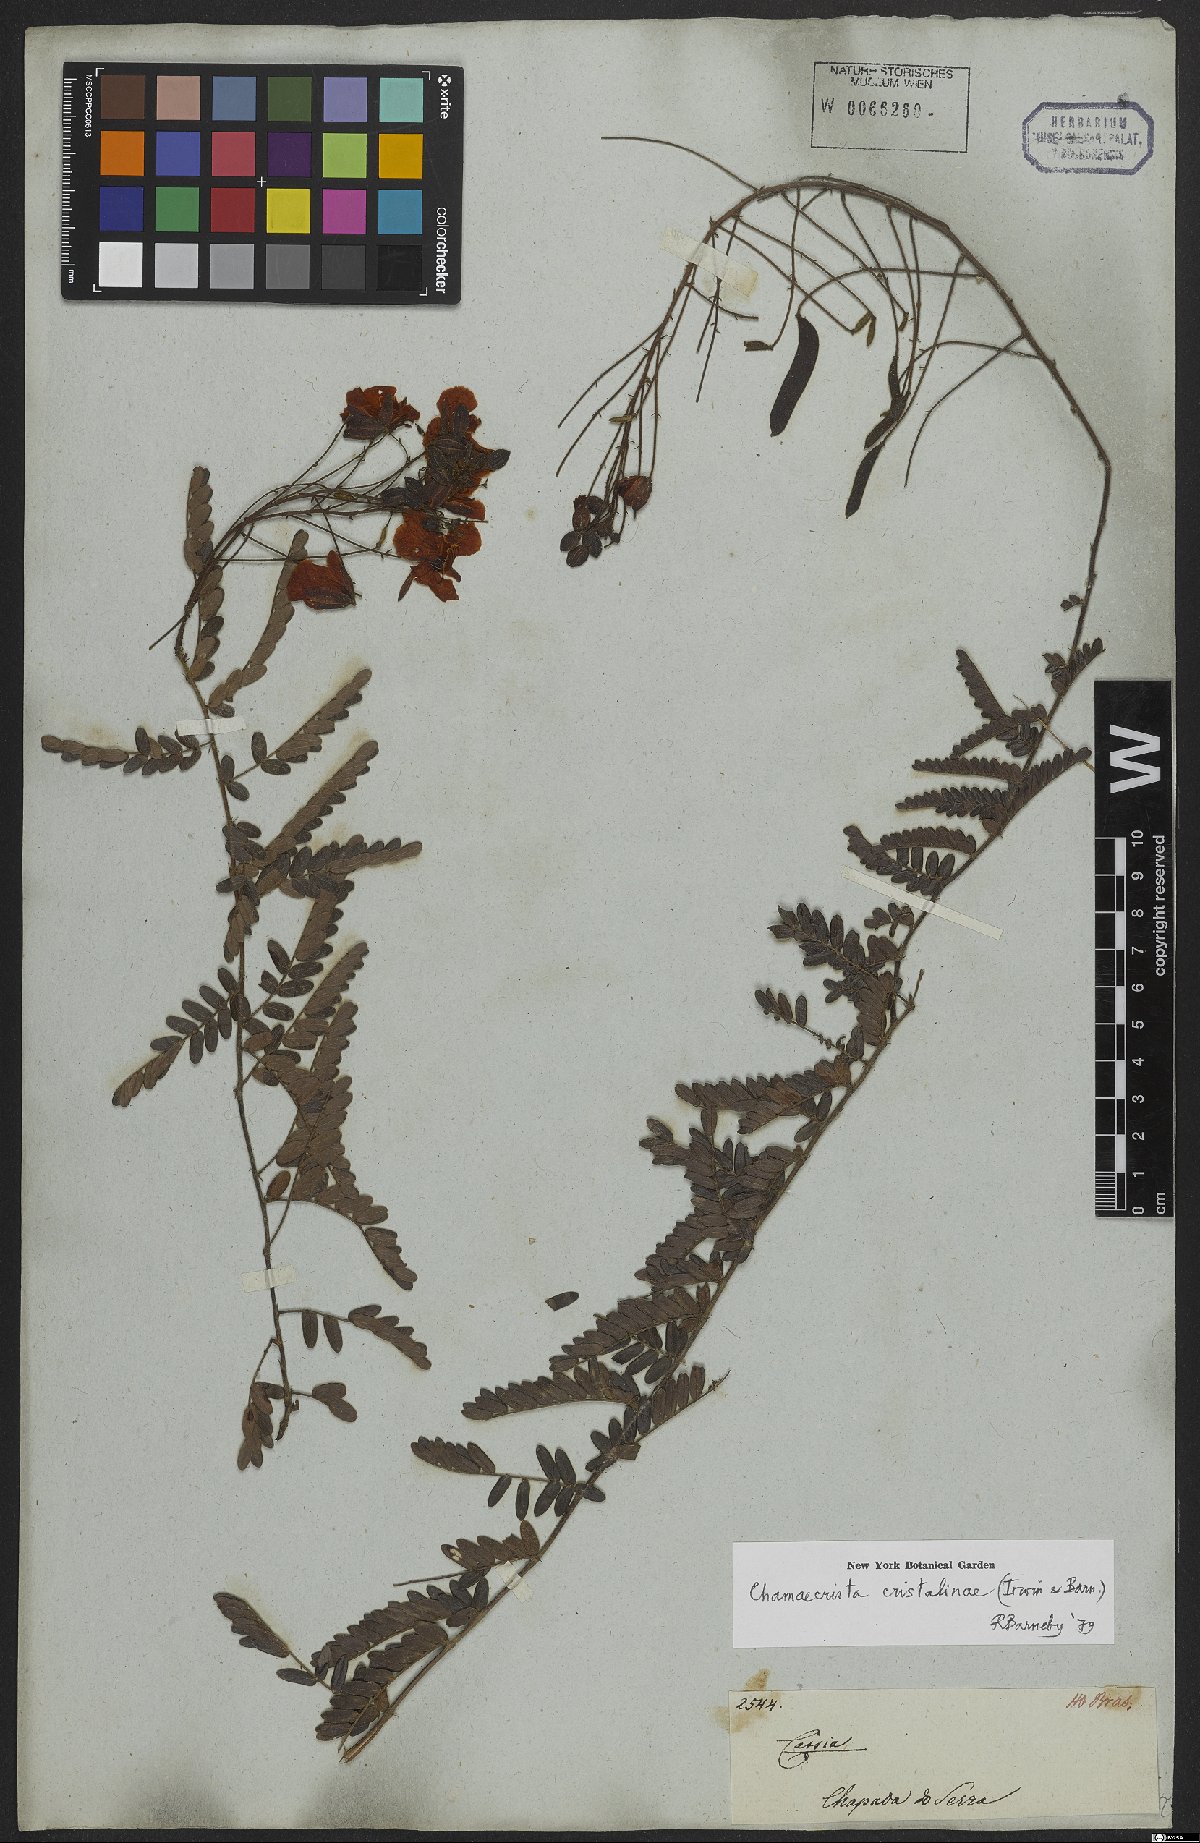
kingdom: Plantae
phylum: Tracheophyta
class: Magnoliopsida
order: Fabales
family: Fabaceae
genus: Chamaecrista
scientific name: Chamaecrista cristalinae
